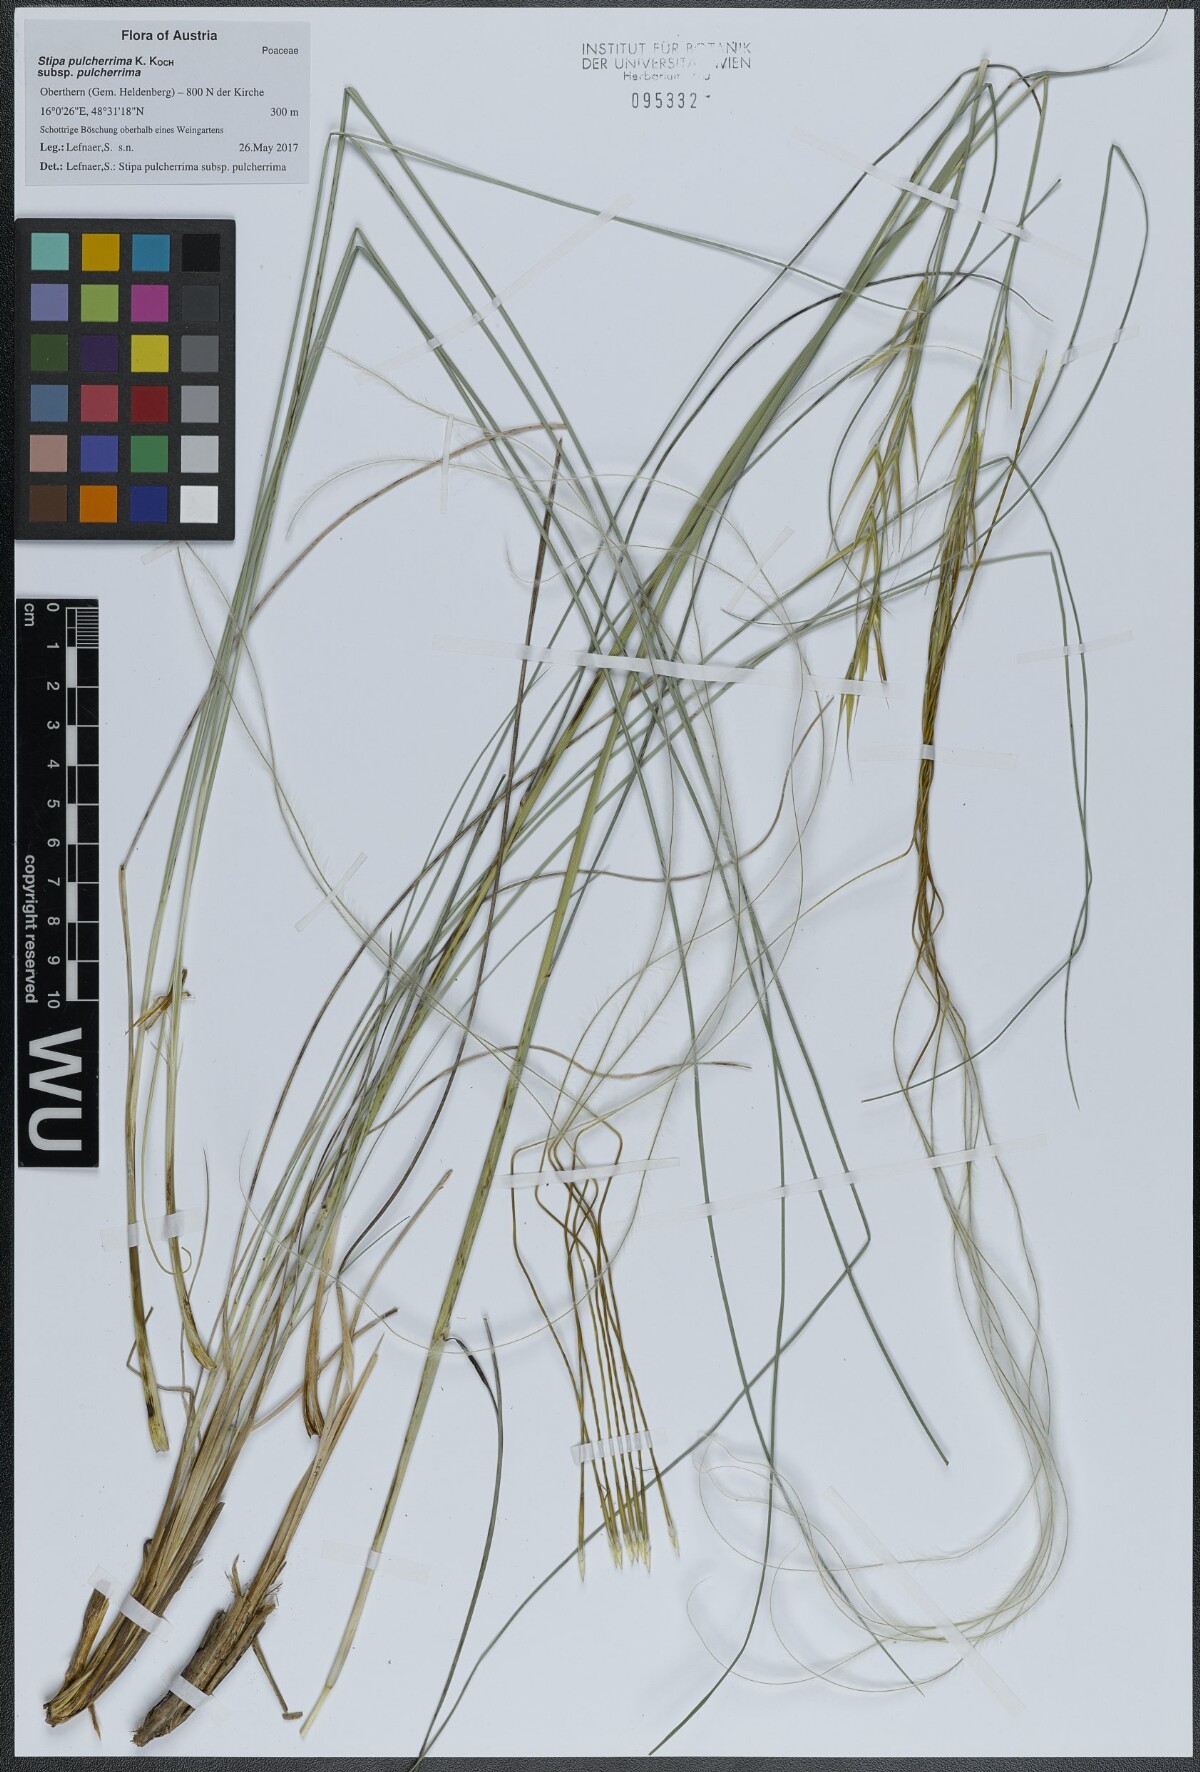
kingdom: Plantae
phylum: Tracheophyta
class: Liliopsida
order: Poales
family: Poaceae
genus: Stipa
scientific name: Stipa pennata
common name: European feather grass
